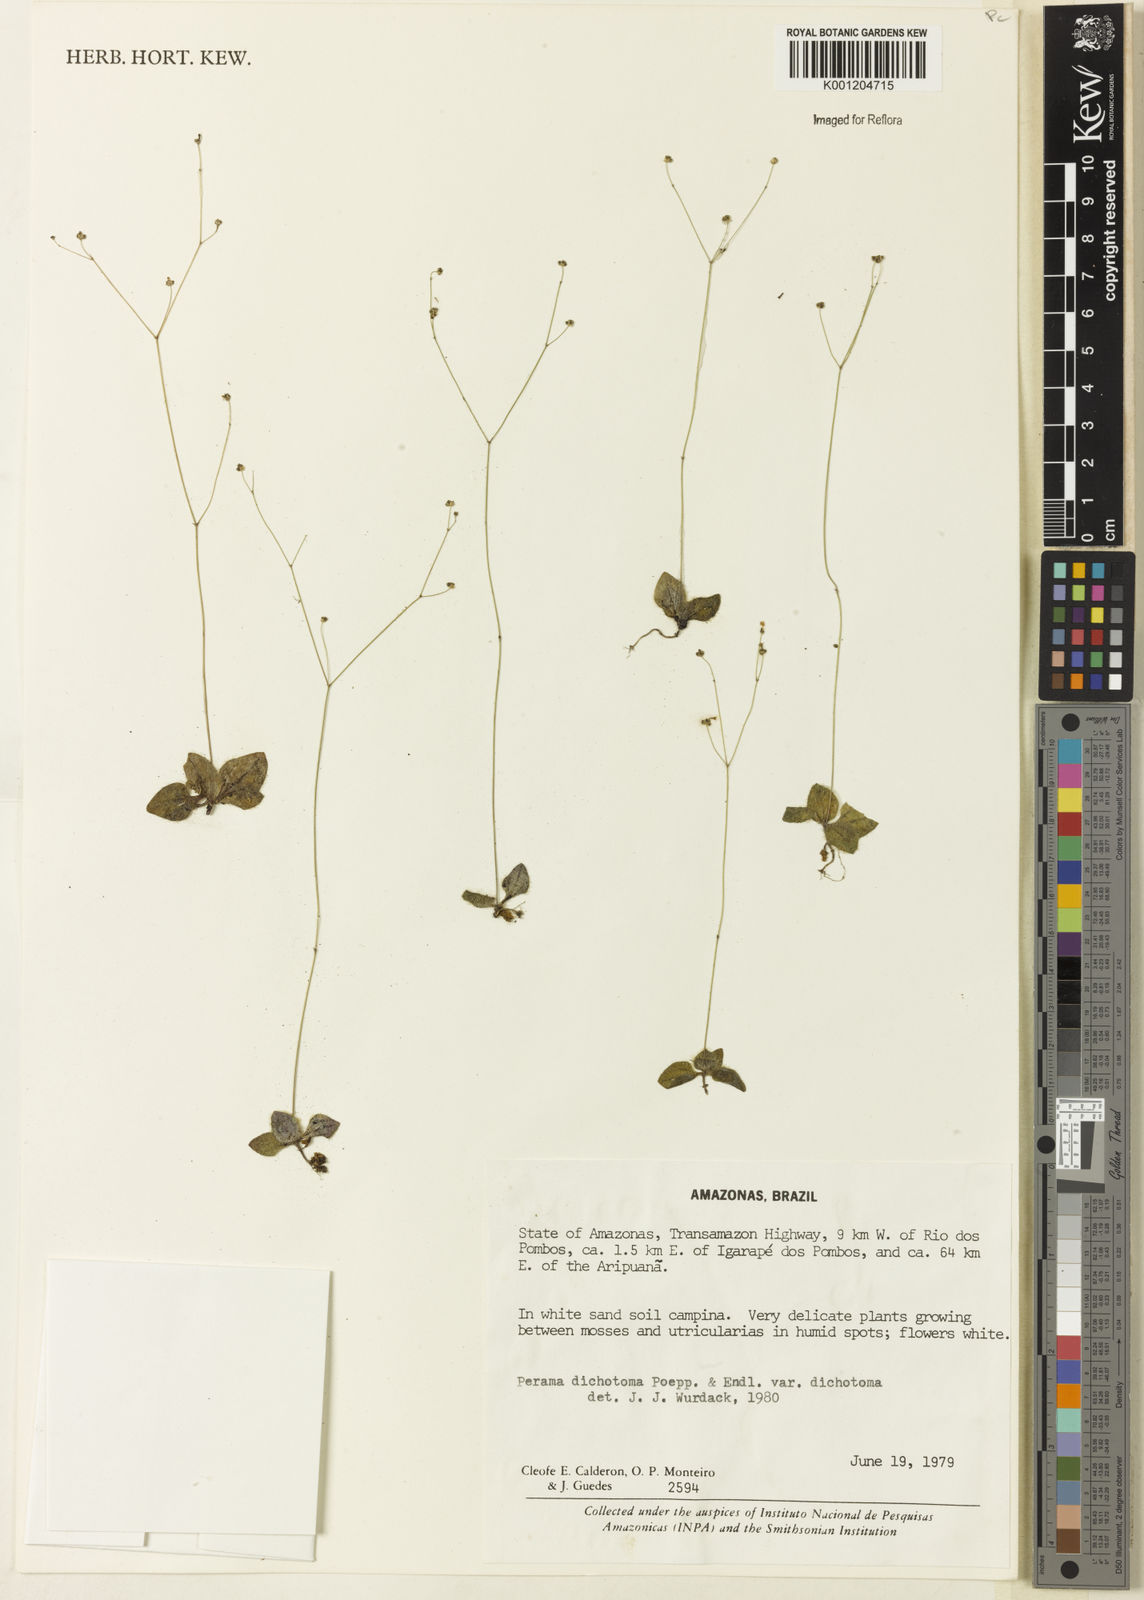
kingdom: Plantae
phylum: Tracheophyta
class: Magnoliopsida
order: Gentianales
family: Rubiaceae
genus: Perama
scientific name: Perama dichotoma
